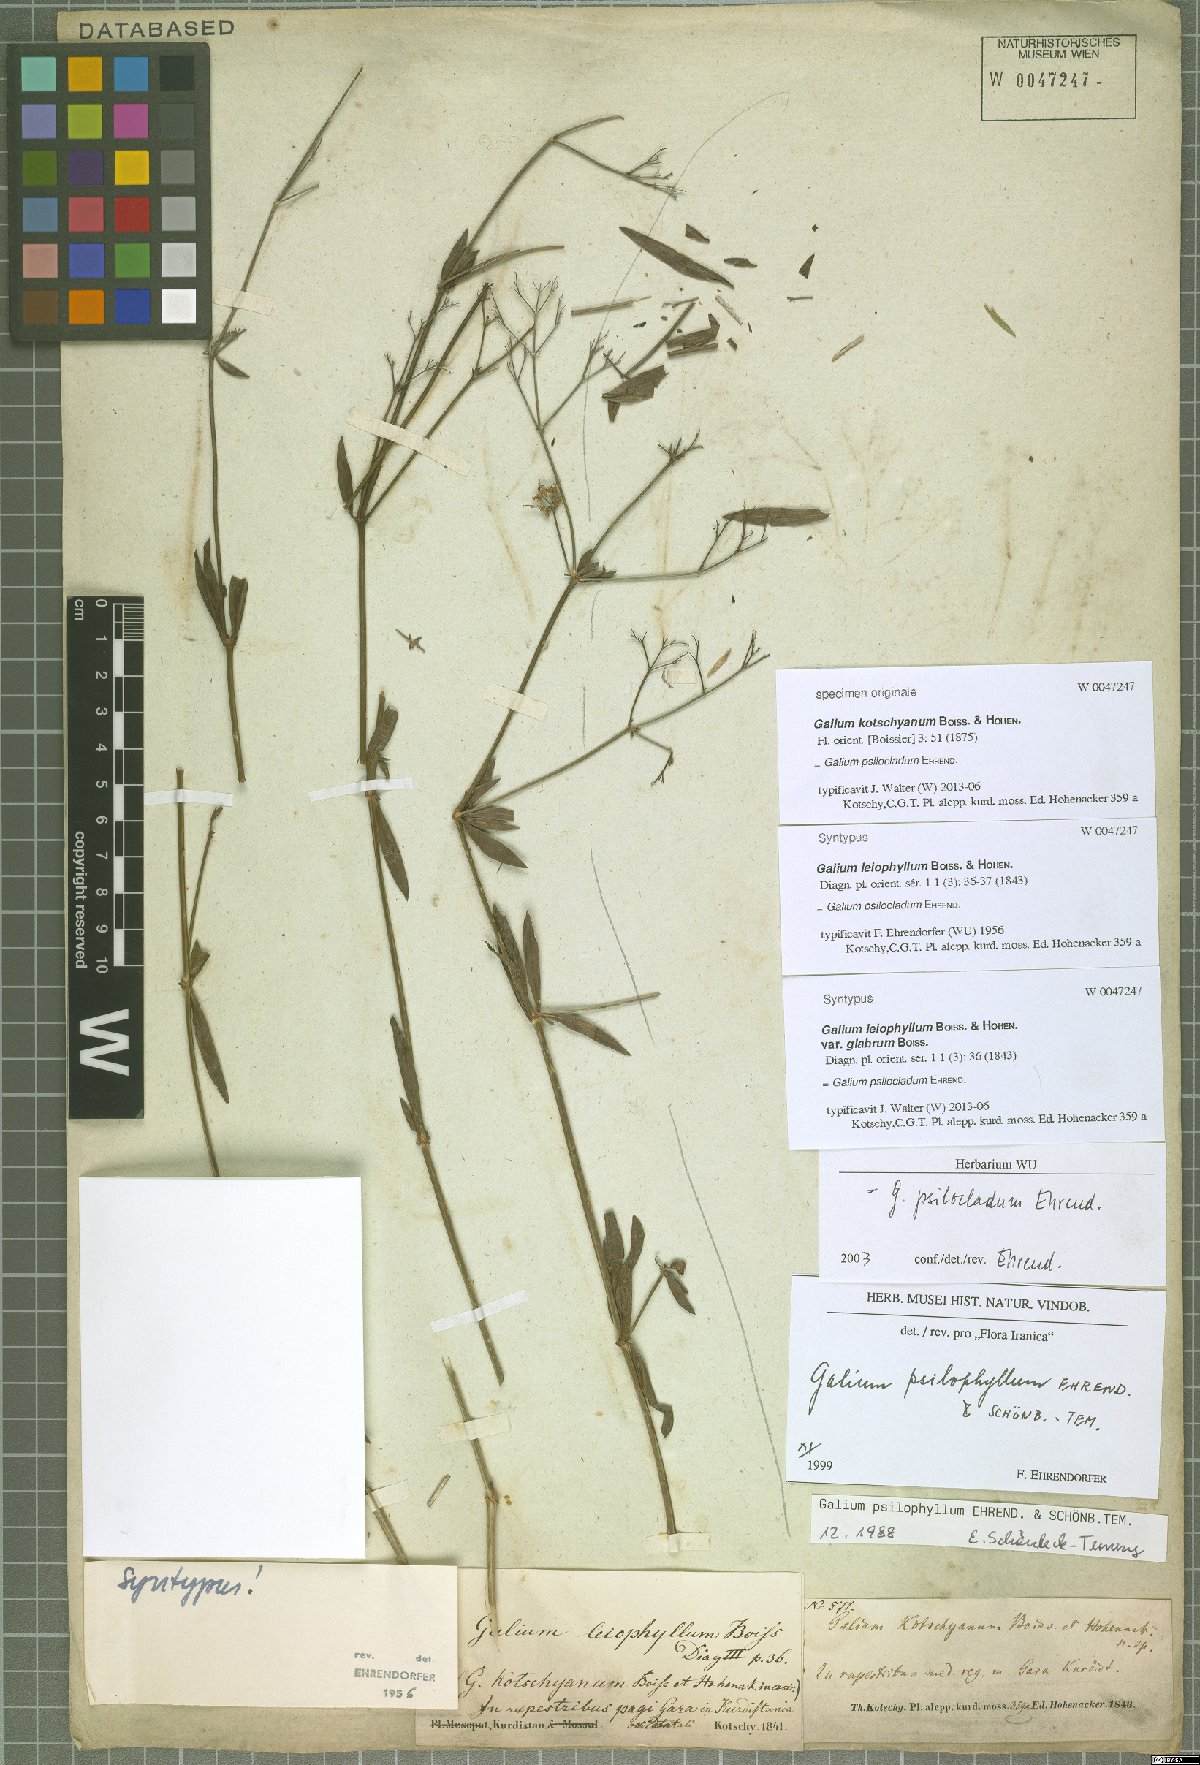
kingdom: Plantae
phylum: Tracheophyta
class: Magnoliopsida
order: Gentianales
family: Rubiaceae
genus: Galium
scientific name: Galium psilocladum
